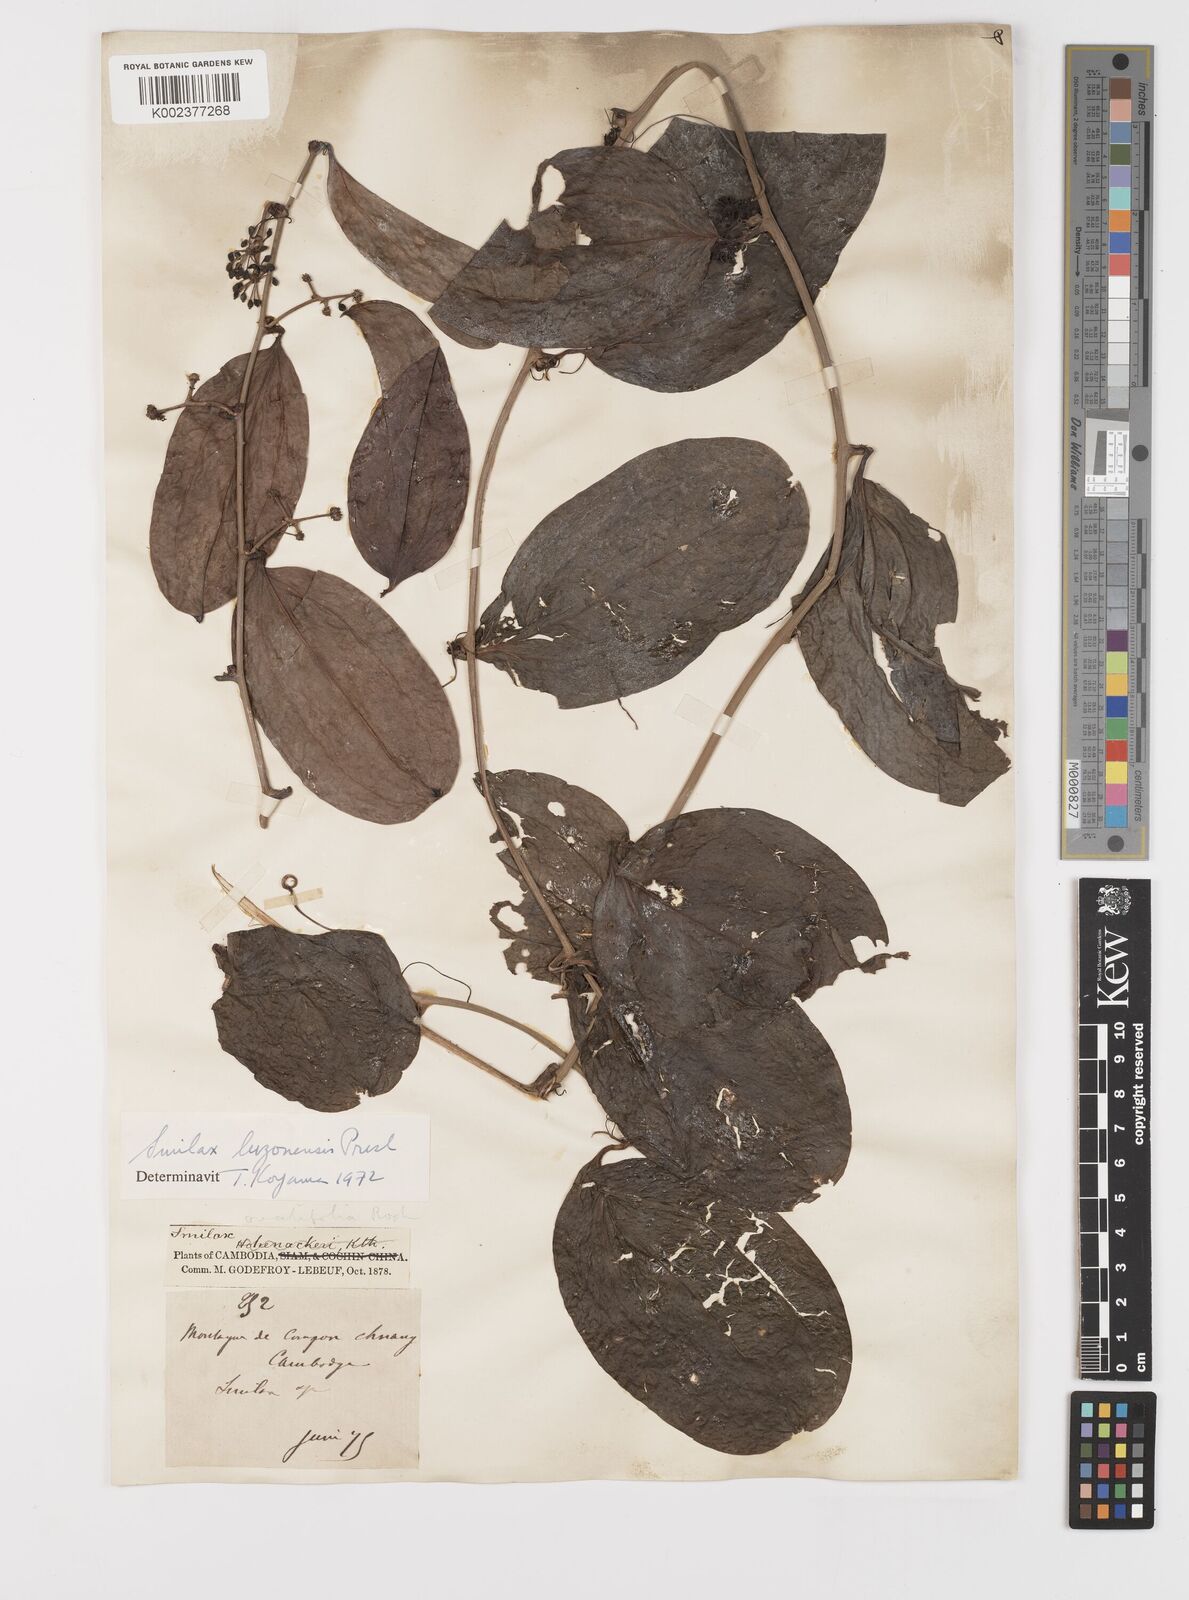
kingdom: Plantae
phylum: Tracheophyta
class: Liliopsida
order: Liliales
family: Smilacaceae
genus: Smilax
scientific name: Smilax luzonensis
